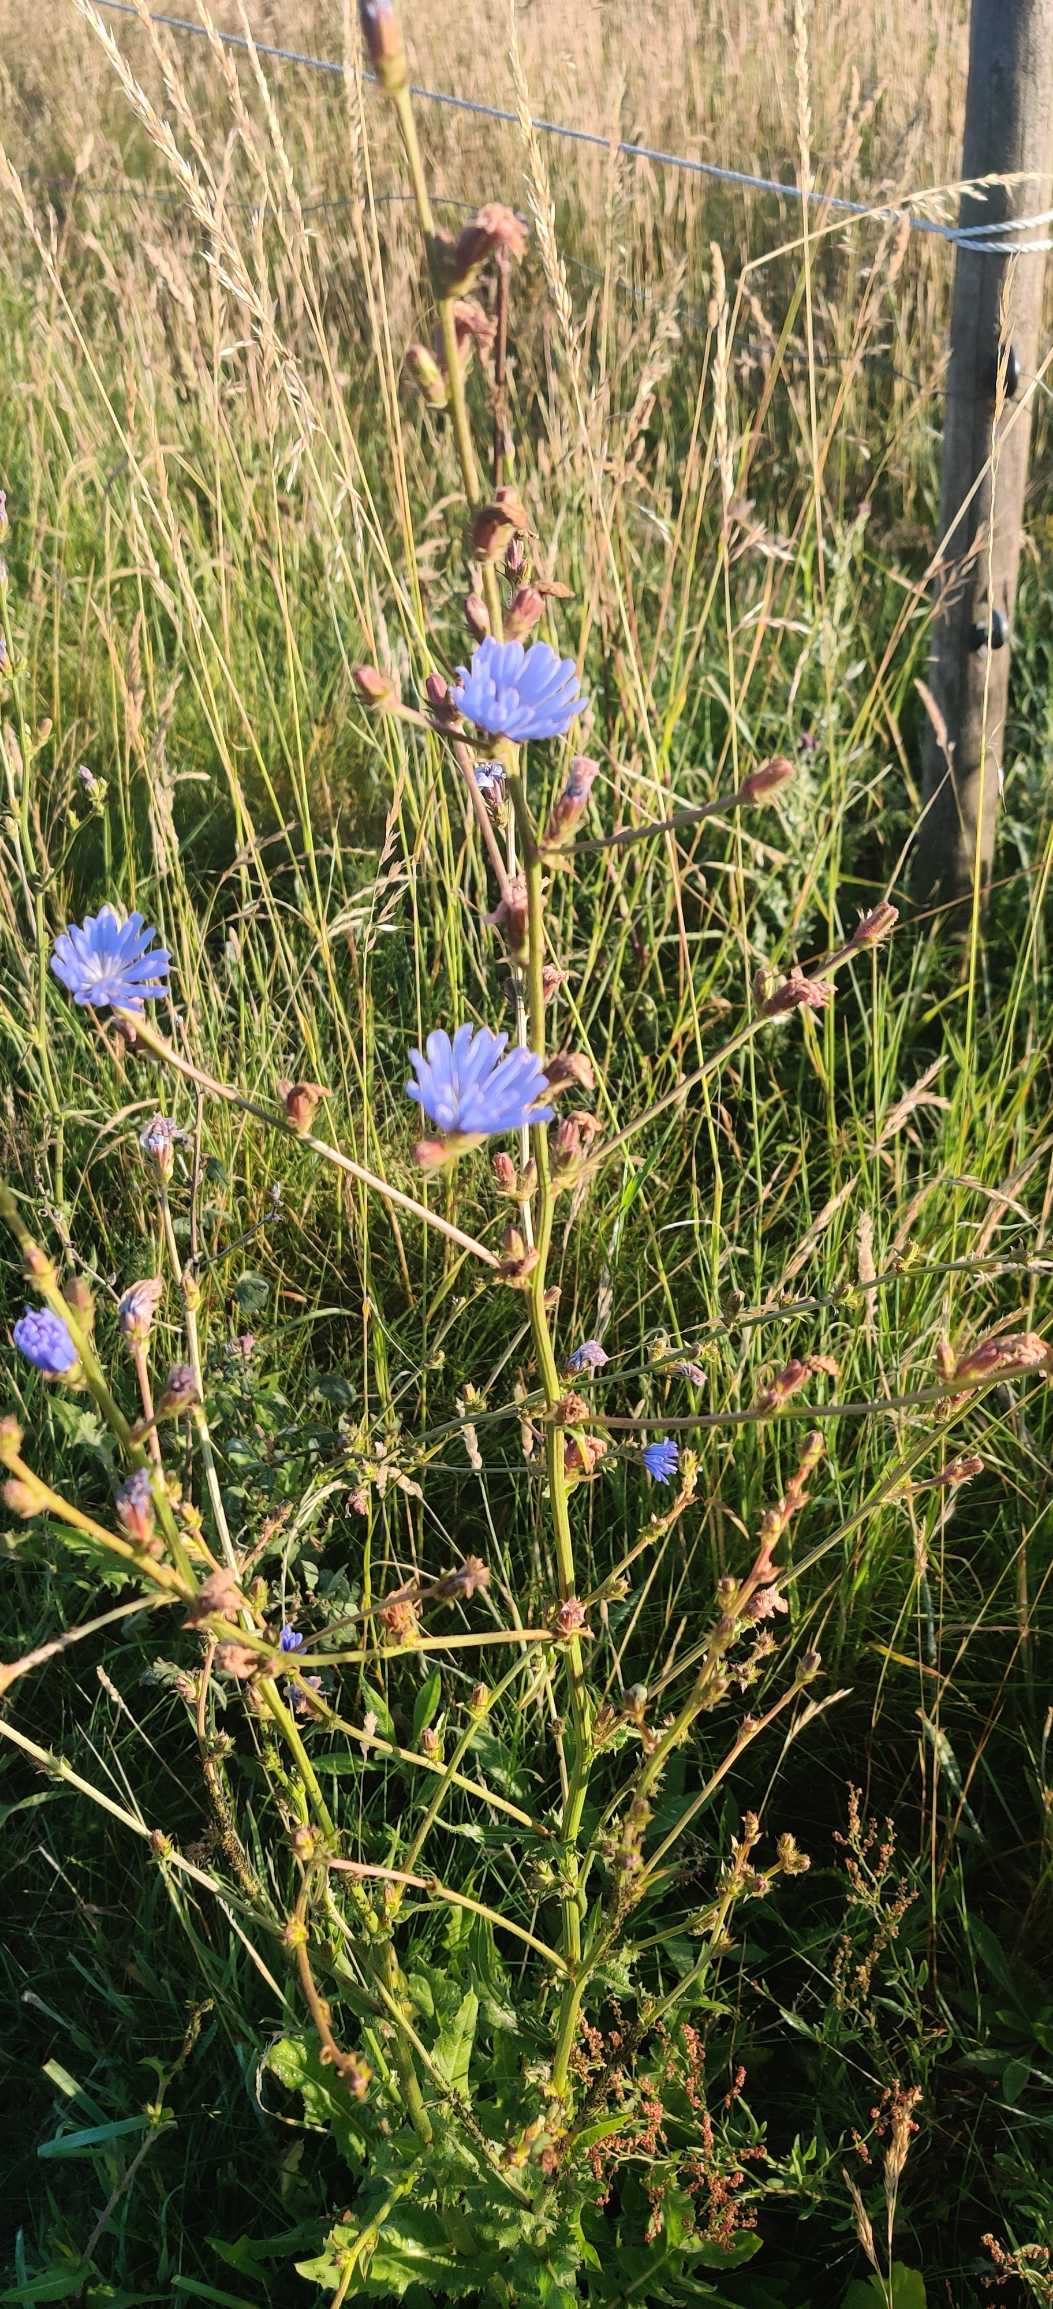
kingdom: Plantae
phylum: Tracheophyta
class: Magnoliopsida
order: Asterales
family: Asteraceae
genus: Cichorium
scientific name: Cichorium intybus
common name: Cikorie
